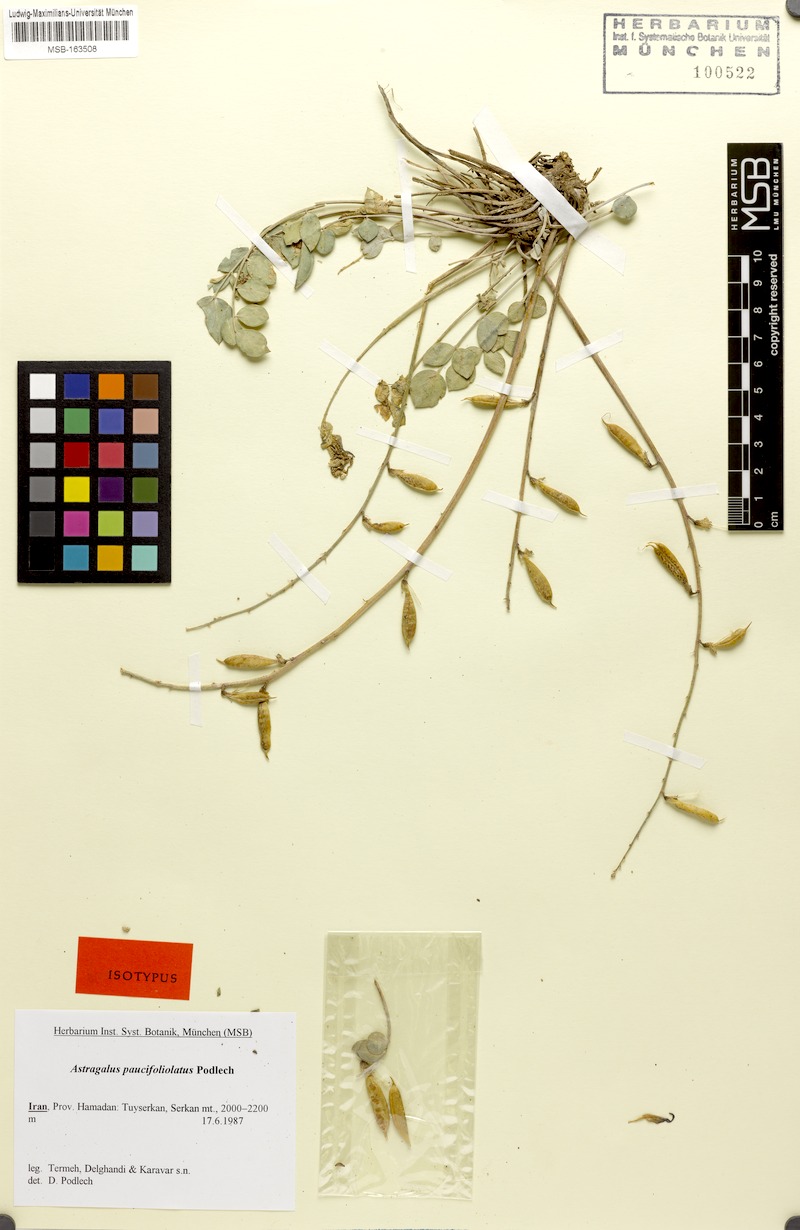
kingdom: Plantae
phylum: Tracheophyta
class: Magnoliopsida
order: Fabales
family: Fabaceae
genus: Astragalus
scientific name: Astragalus paucifoliolatus
